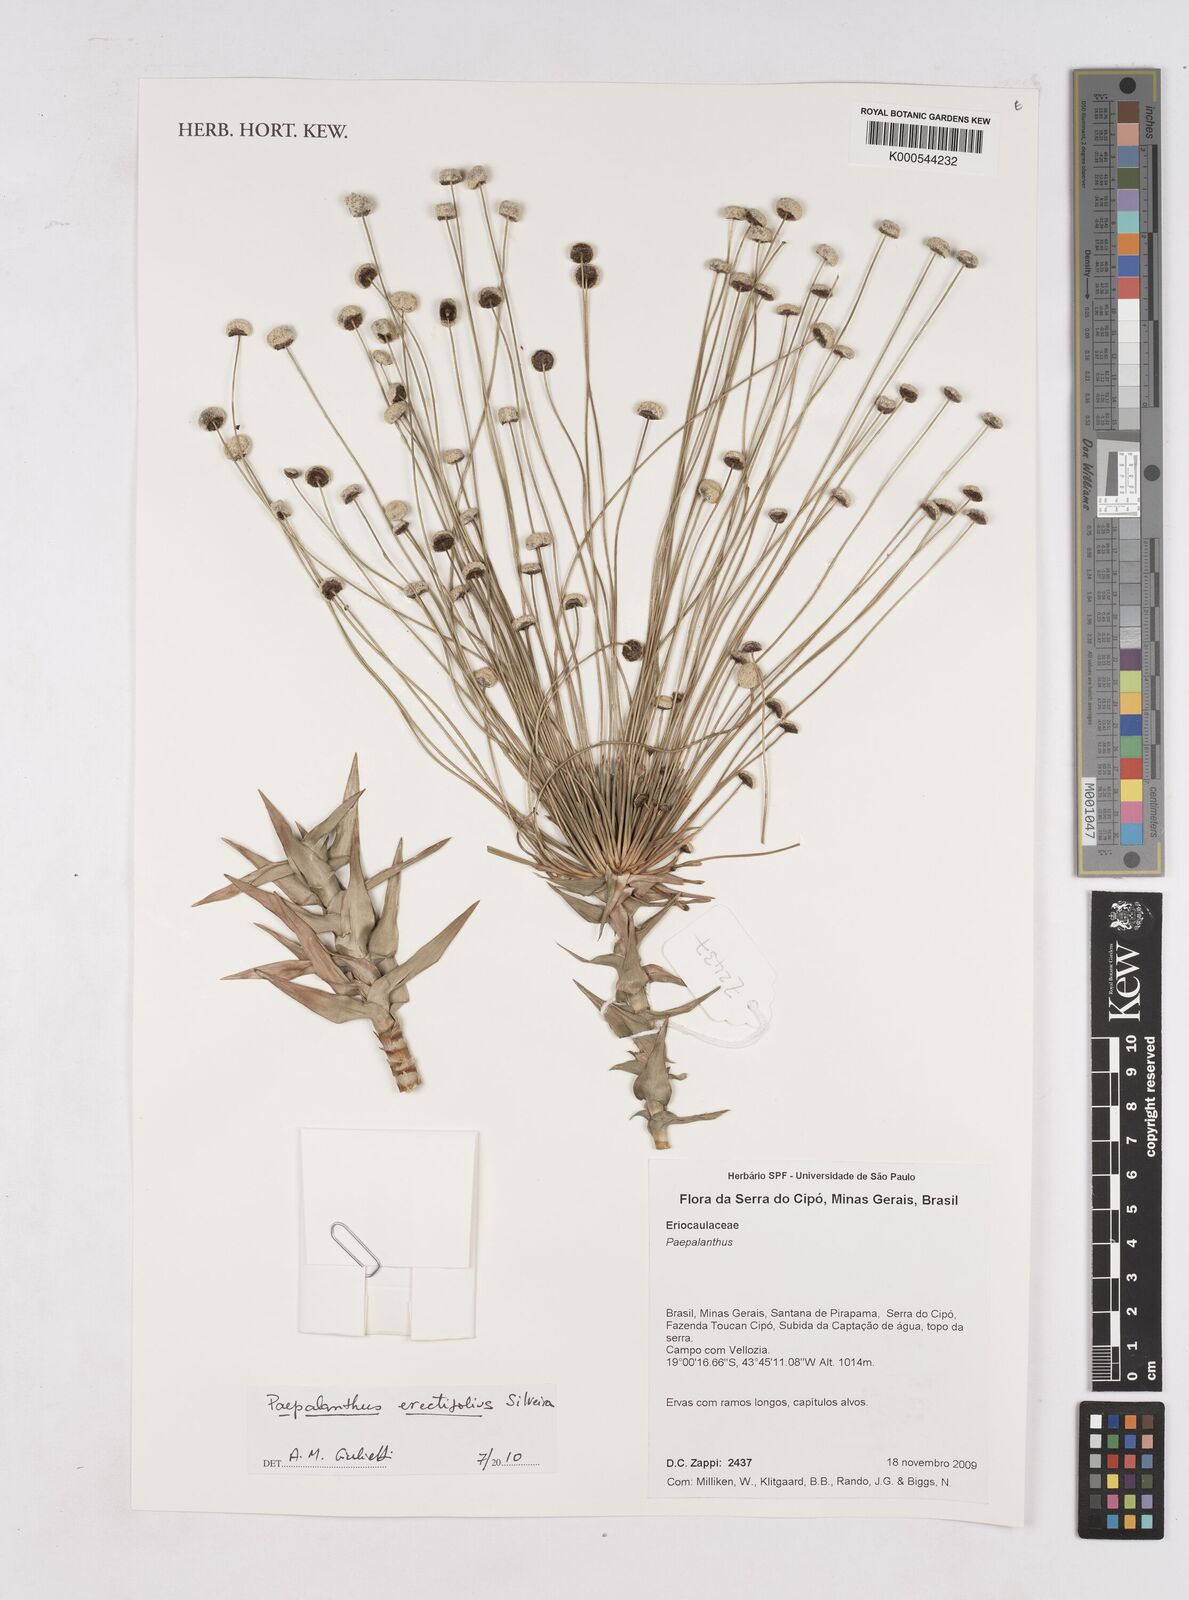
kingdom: Plantae
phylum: Tracheophyta
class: Liliopsida
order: Poales
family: Eriocaulaceae
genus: Paepalanthus
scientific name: Paepalanthus erectifolius
